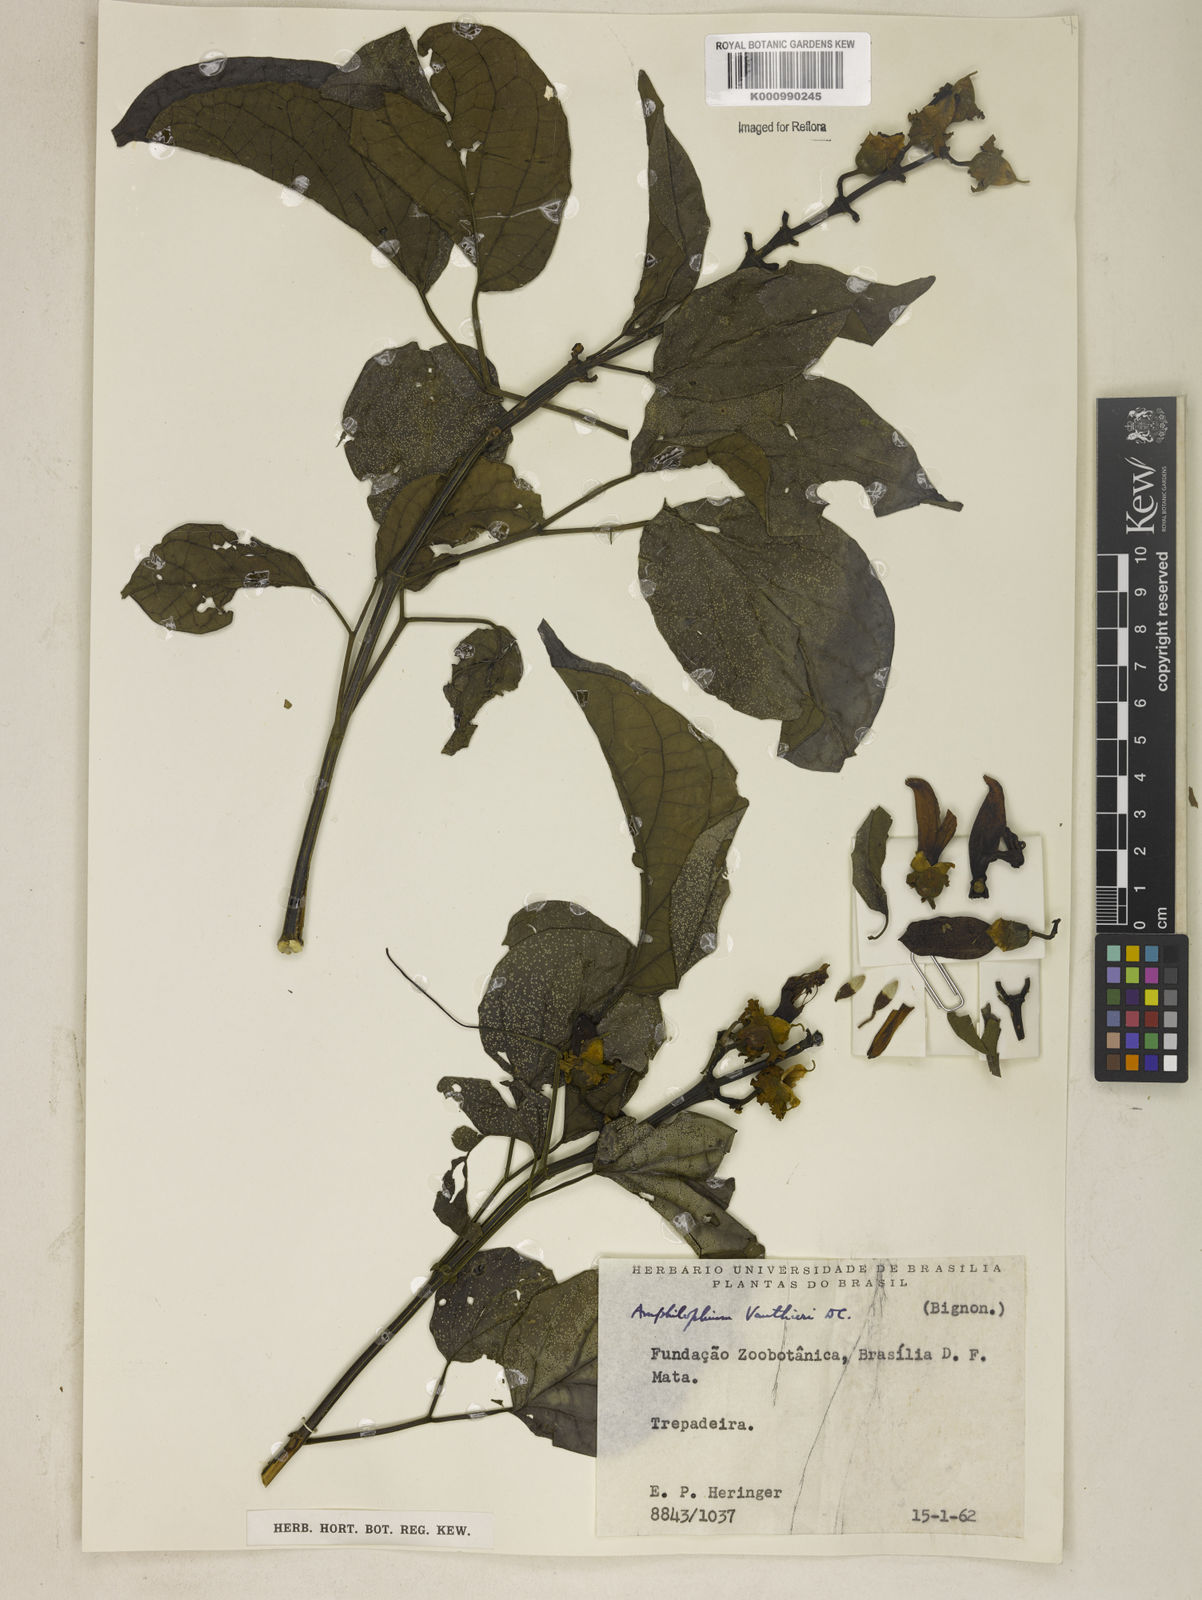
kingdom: Plantae
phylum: Tracheophyta
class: Magnoliopsida
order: Lamiales
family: Bignoniaceae
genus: Amphilophium
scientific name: Amphilophium paniculatum
